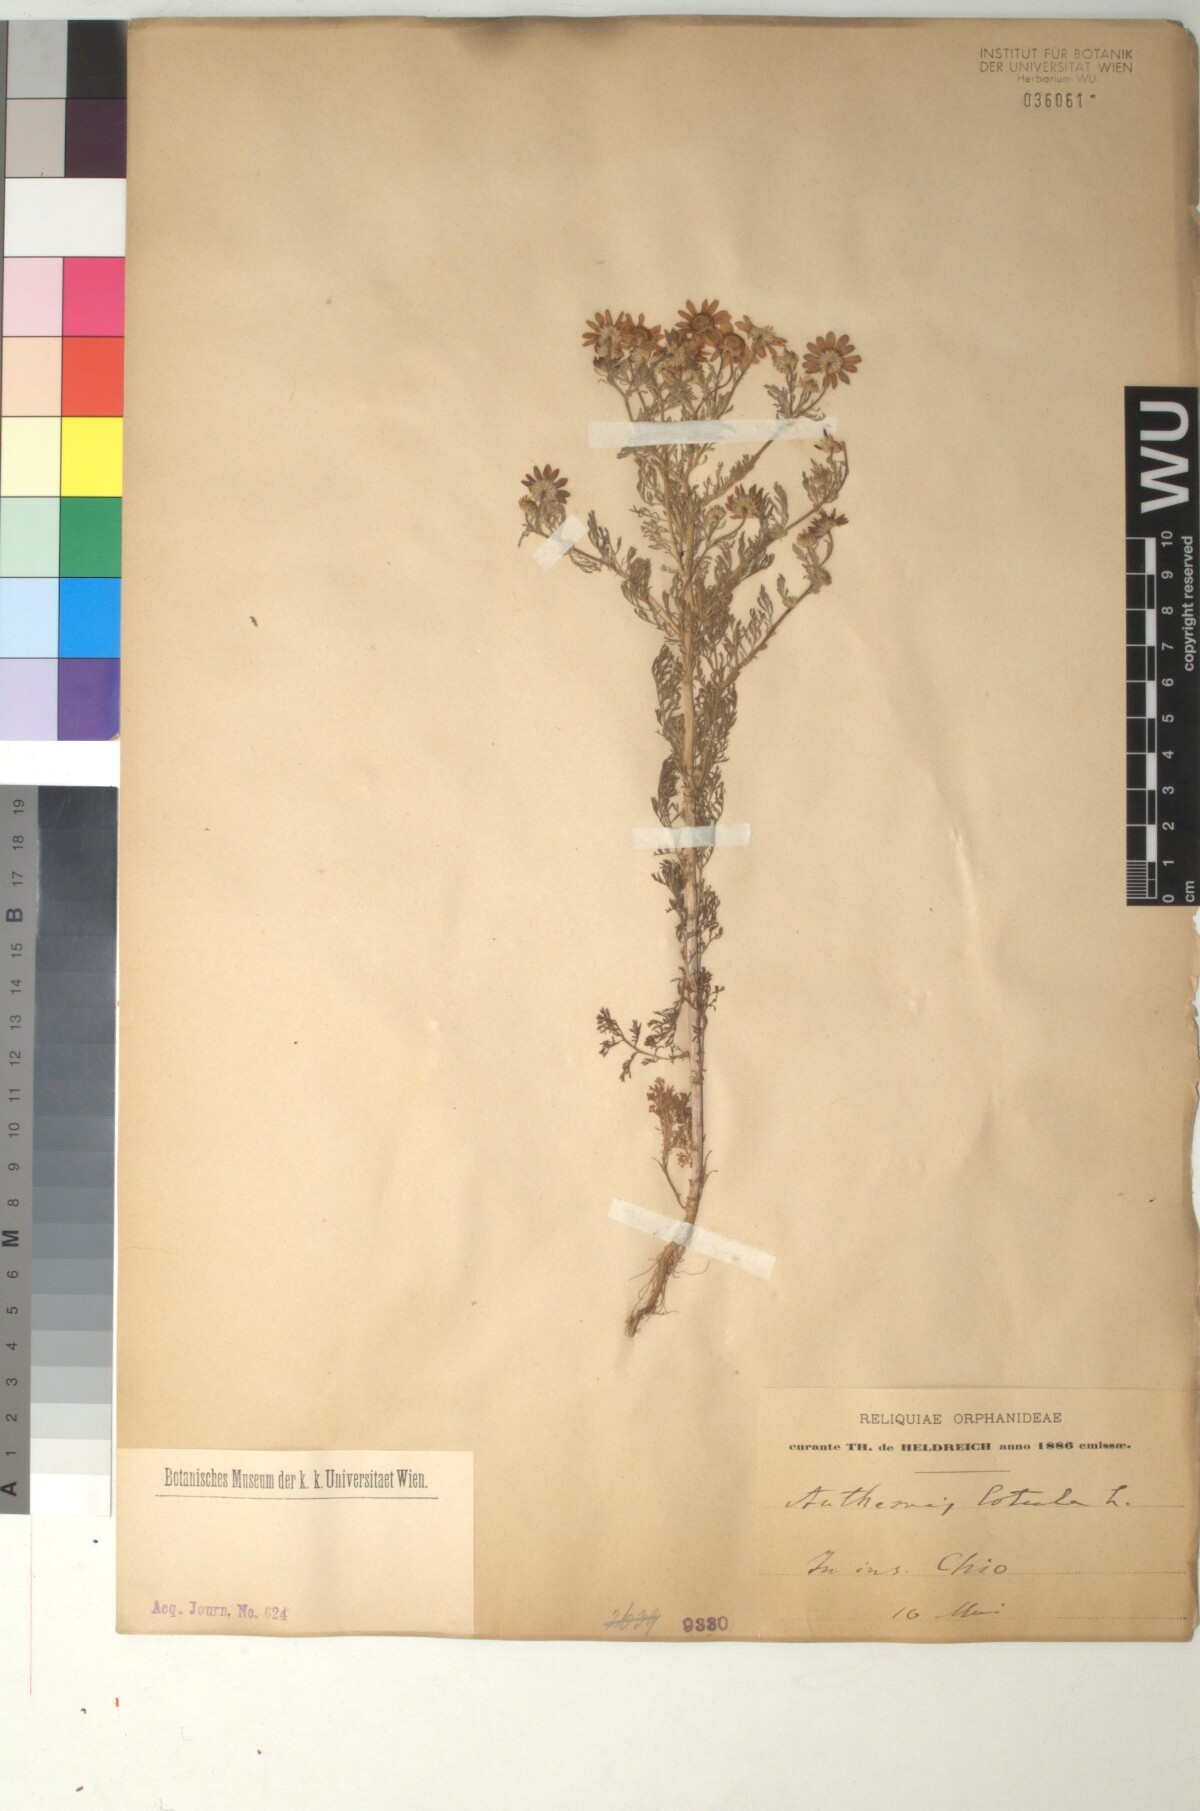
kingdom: Plantae
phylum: Tracheophyta
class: Magnoliopsida
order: Asterales
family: Asteraceae
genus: Anthemis
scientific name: Anthemis cotula
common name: Stinking chamomile
